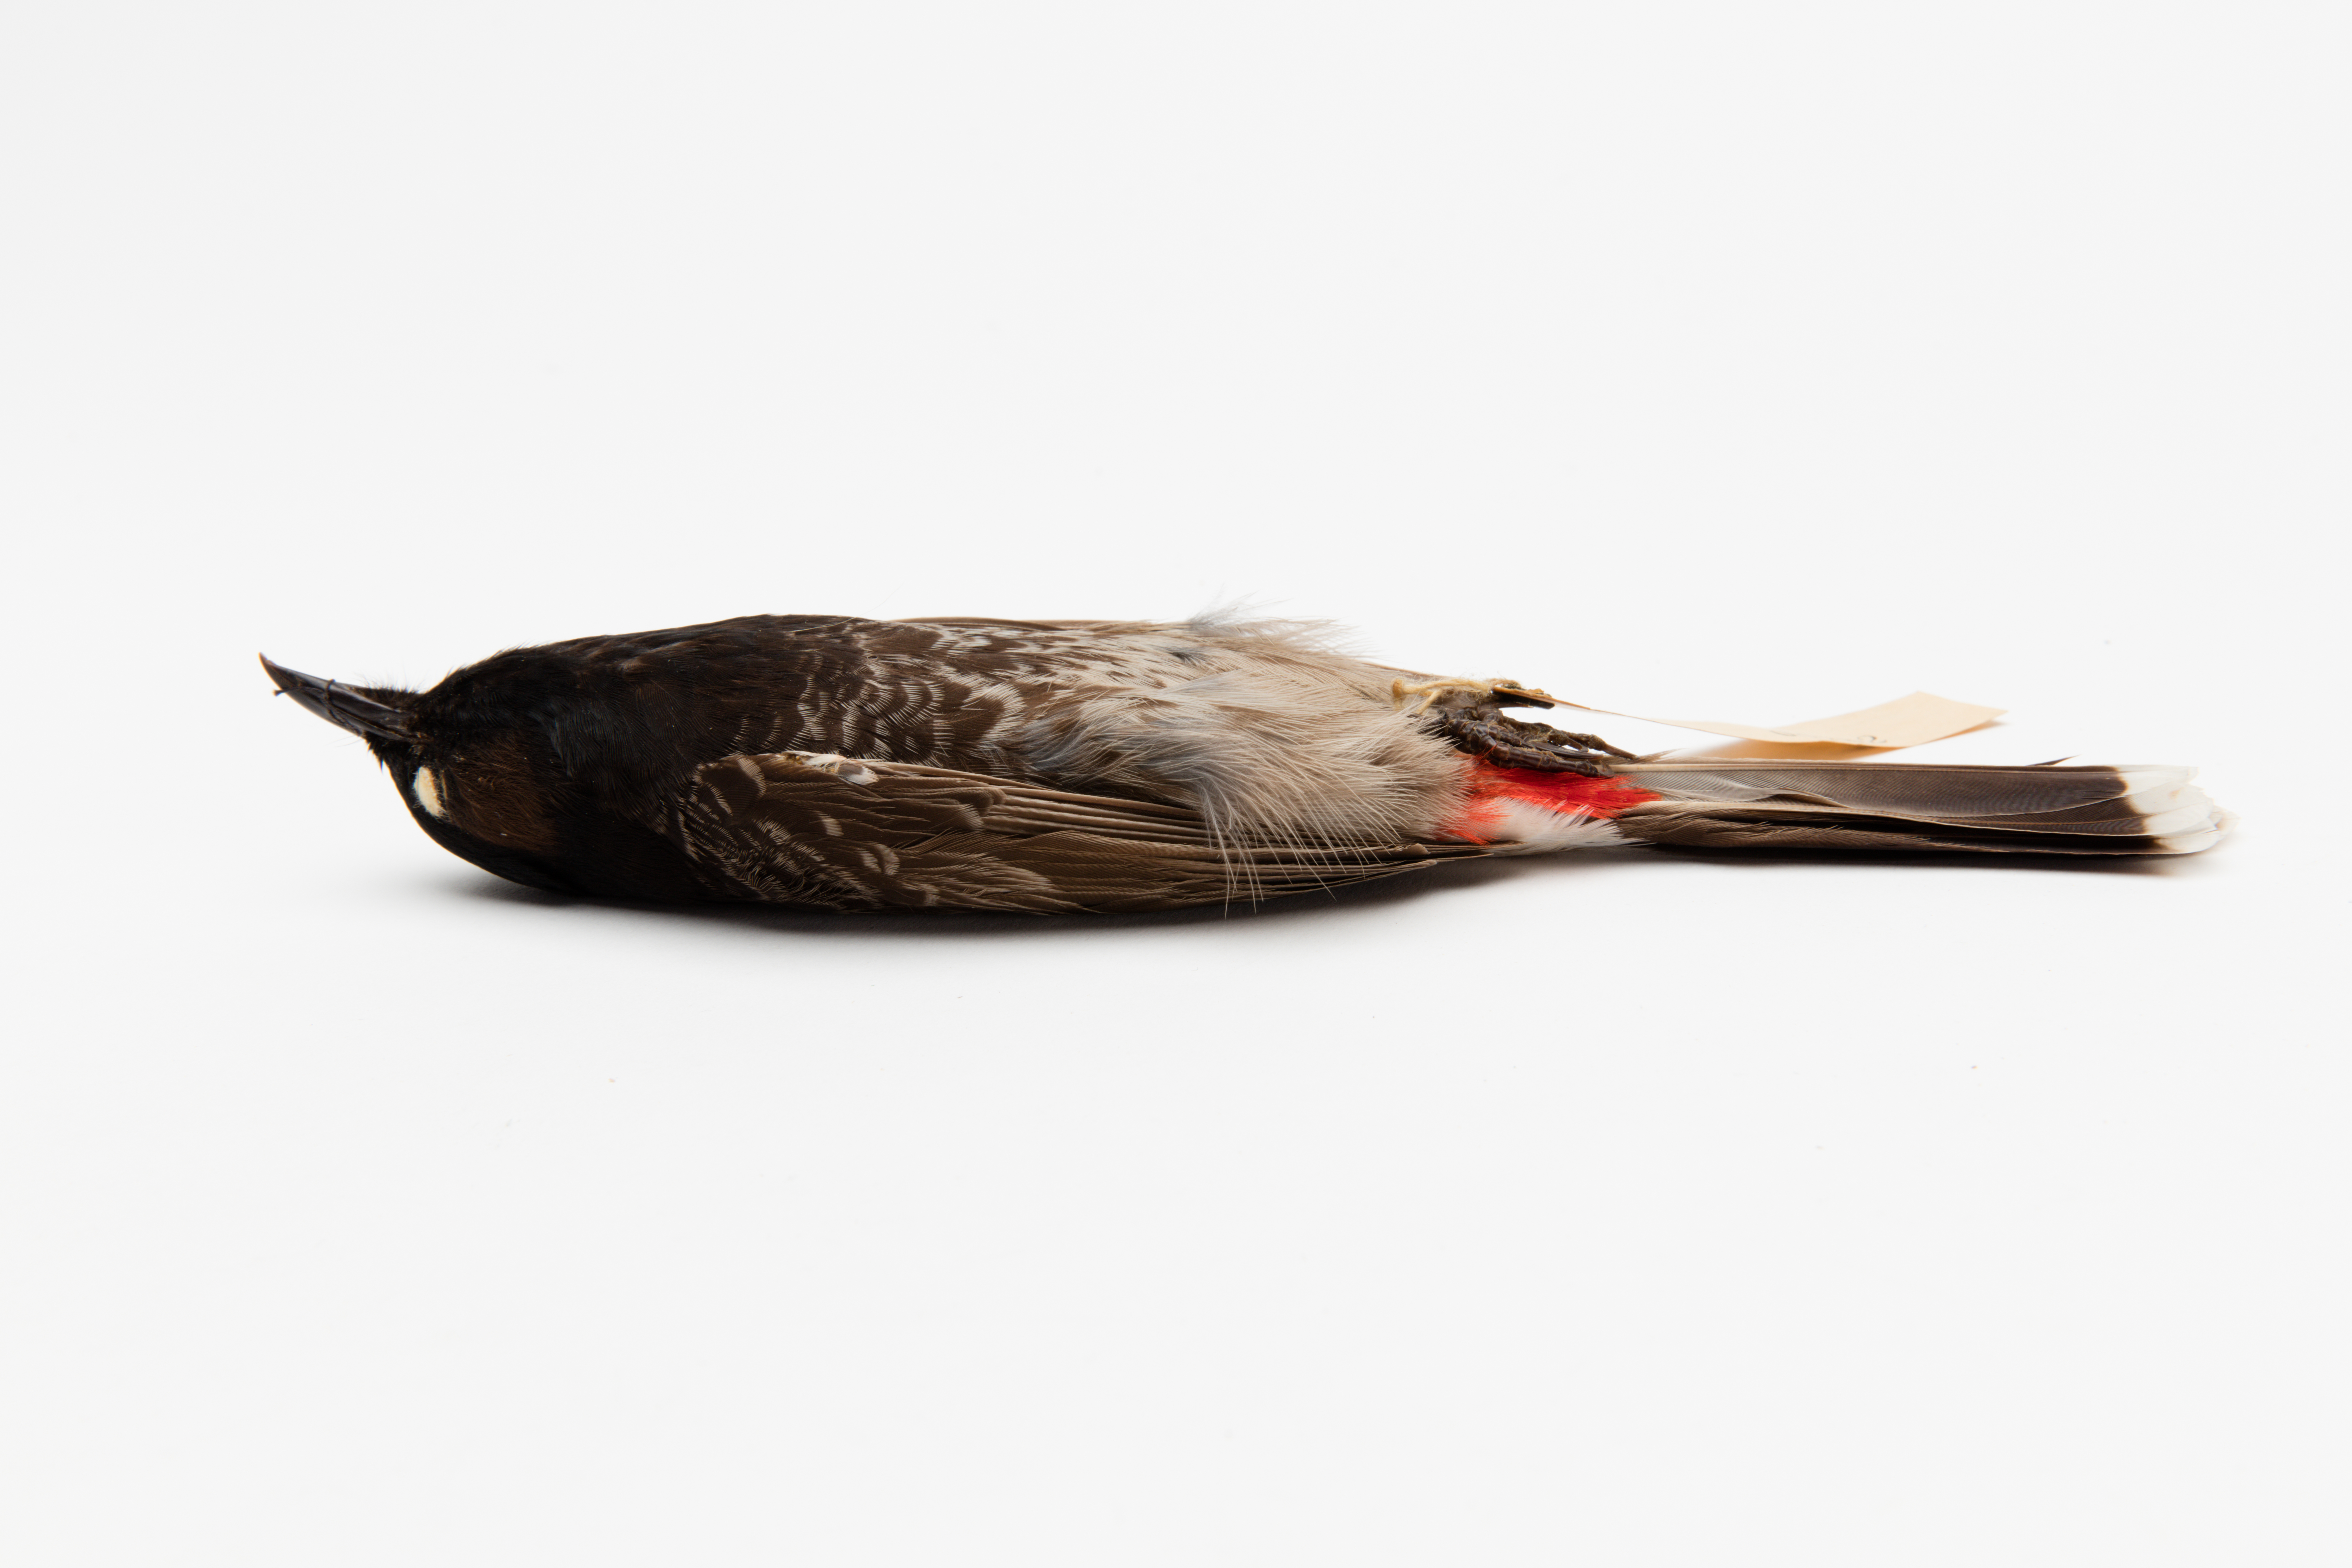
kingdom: Animalia
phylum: Chordata
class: Aves
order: Passeriformes
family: Pycnonotidae
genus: Pycnonotus
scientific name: Pycnonotus cafer
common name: Red-vented bulbul
